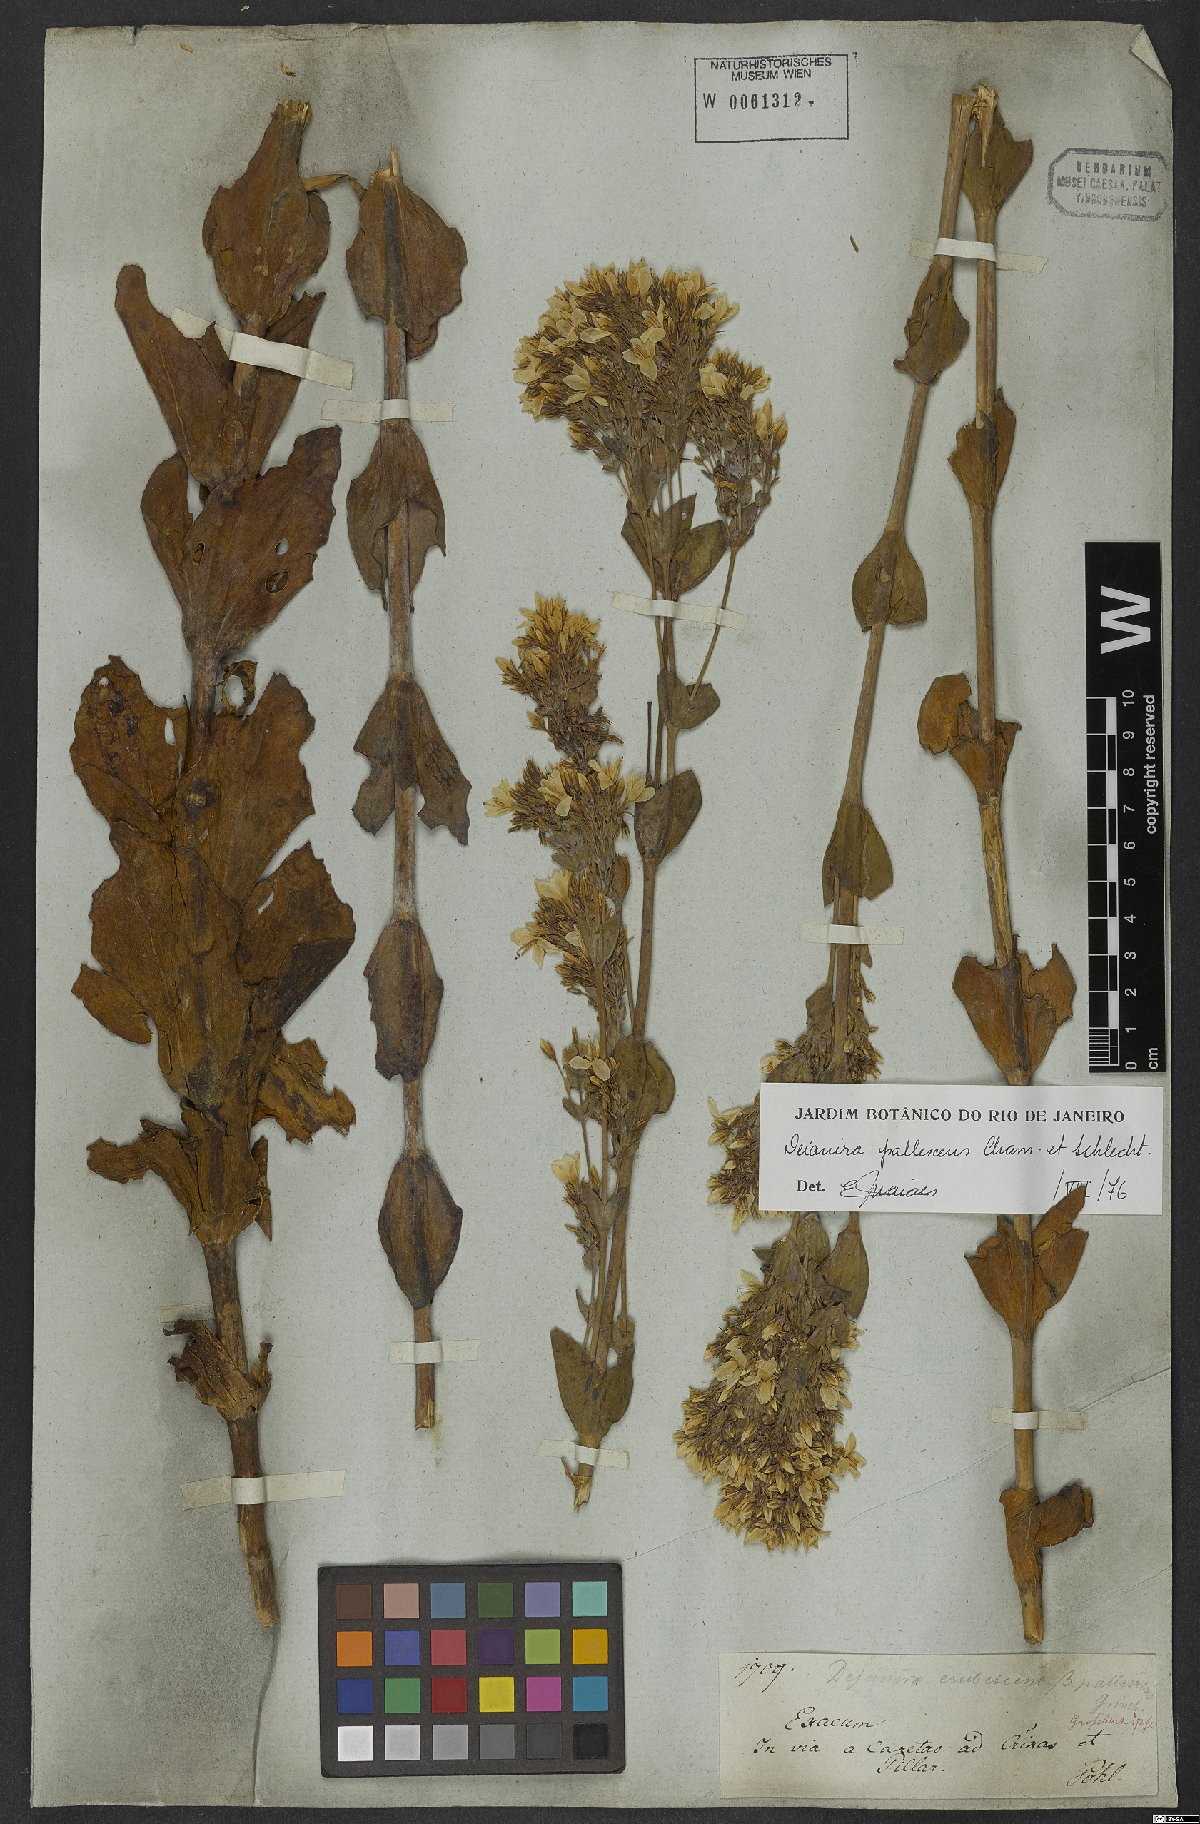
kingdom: Plantae
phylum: Tracheophyta
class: Magnoliopsida
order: Gentianales
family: Gentianaceae
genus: Deianira
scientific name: Deianira pallescens
